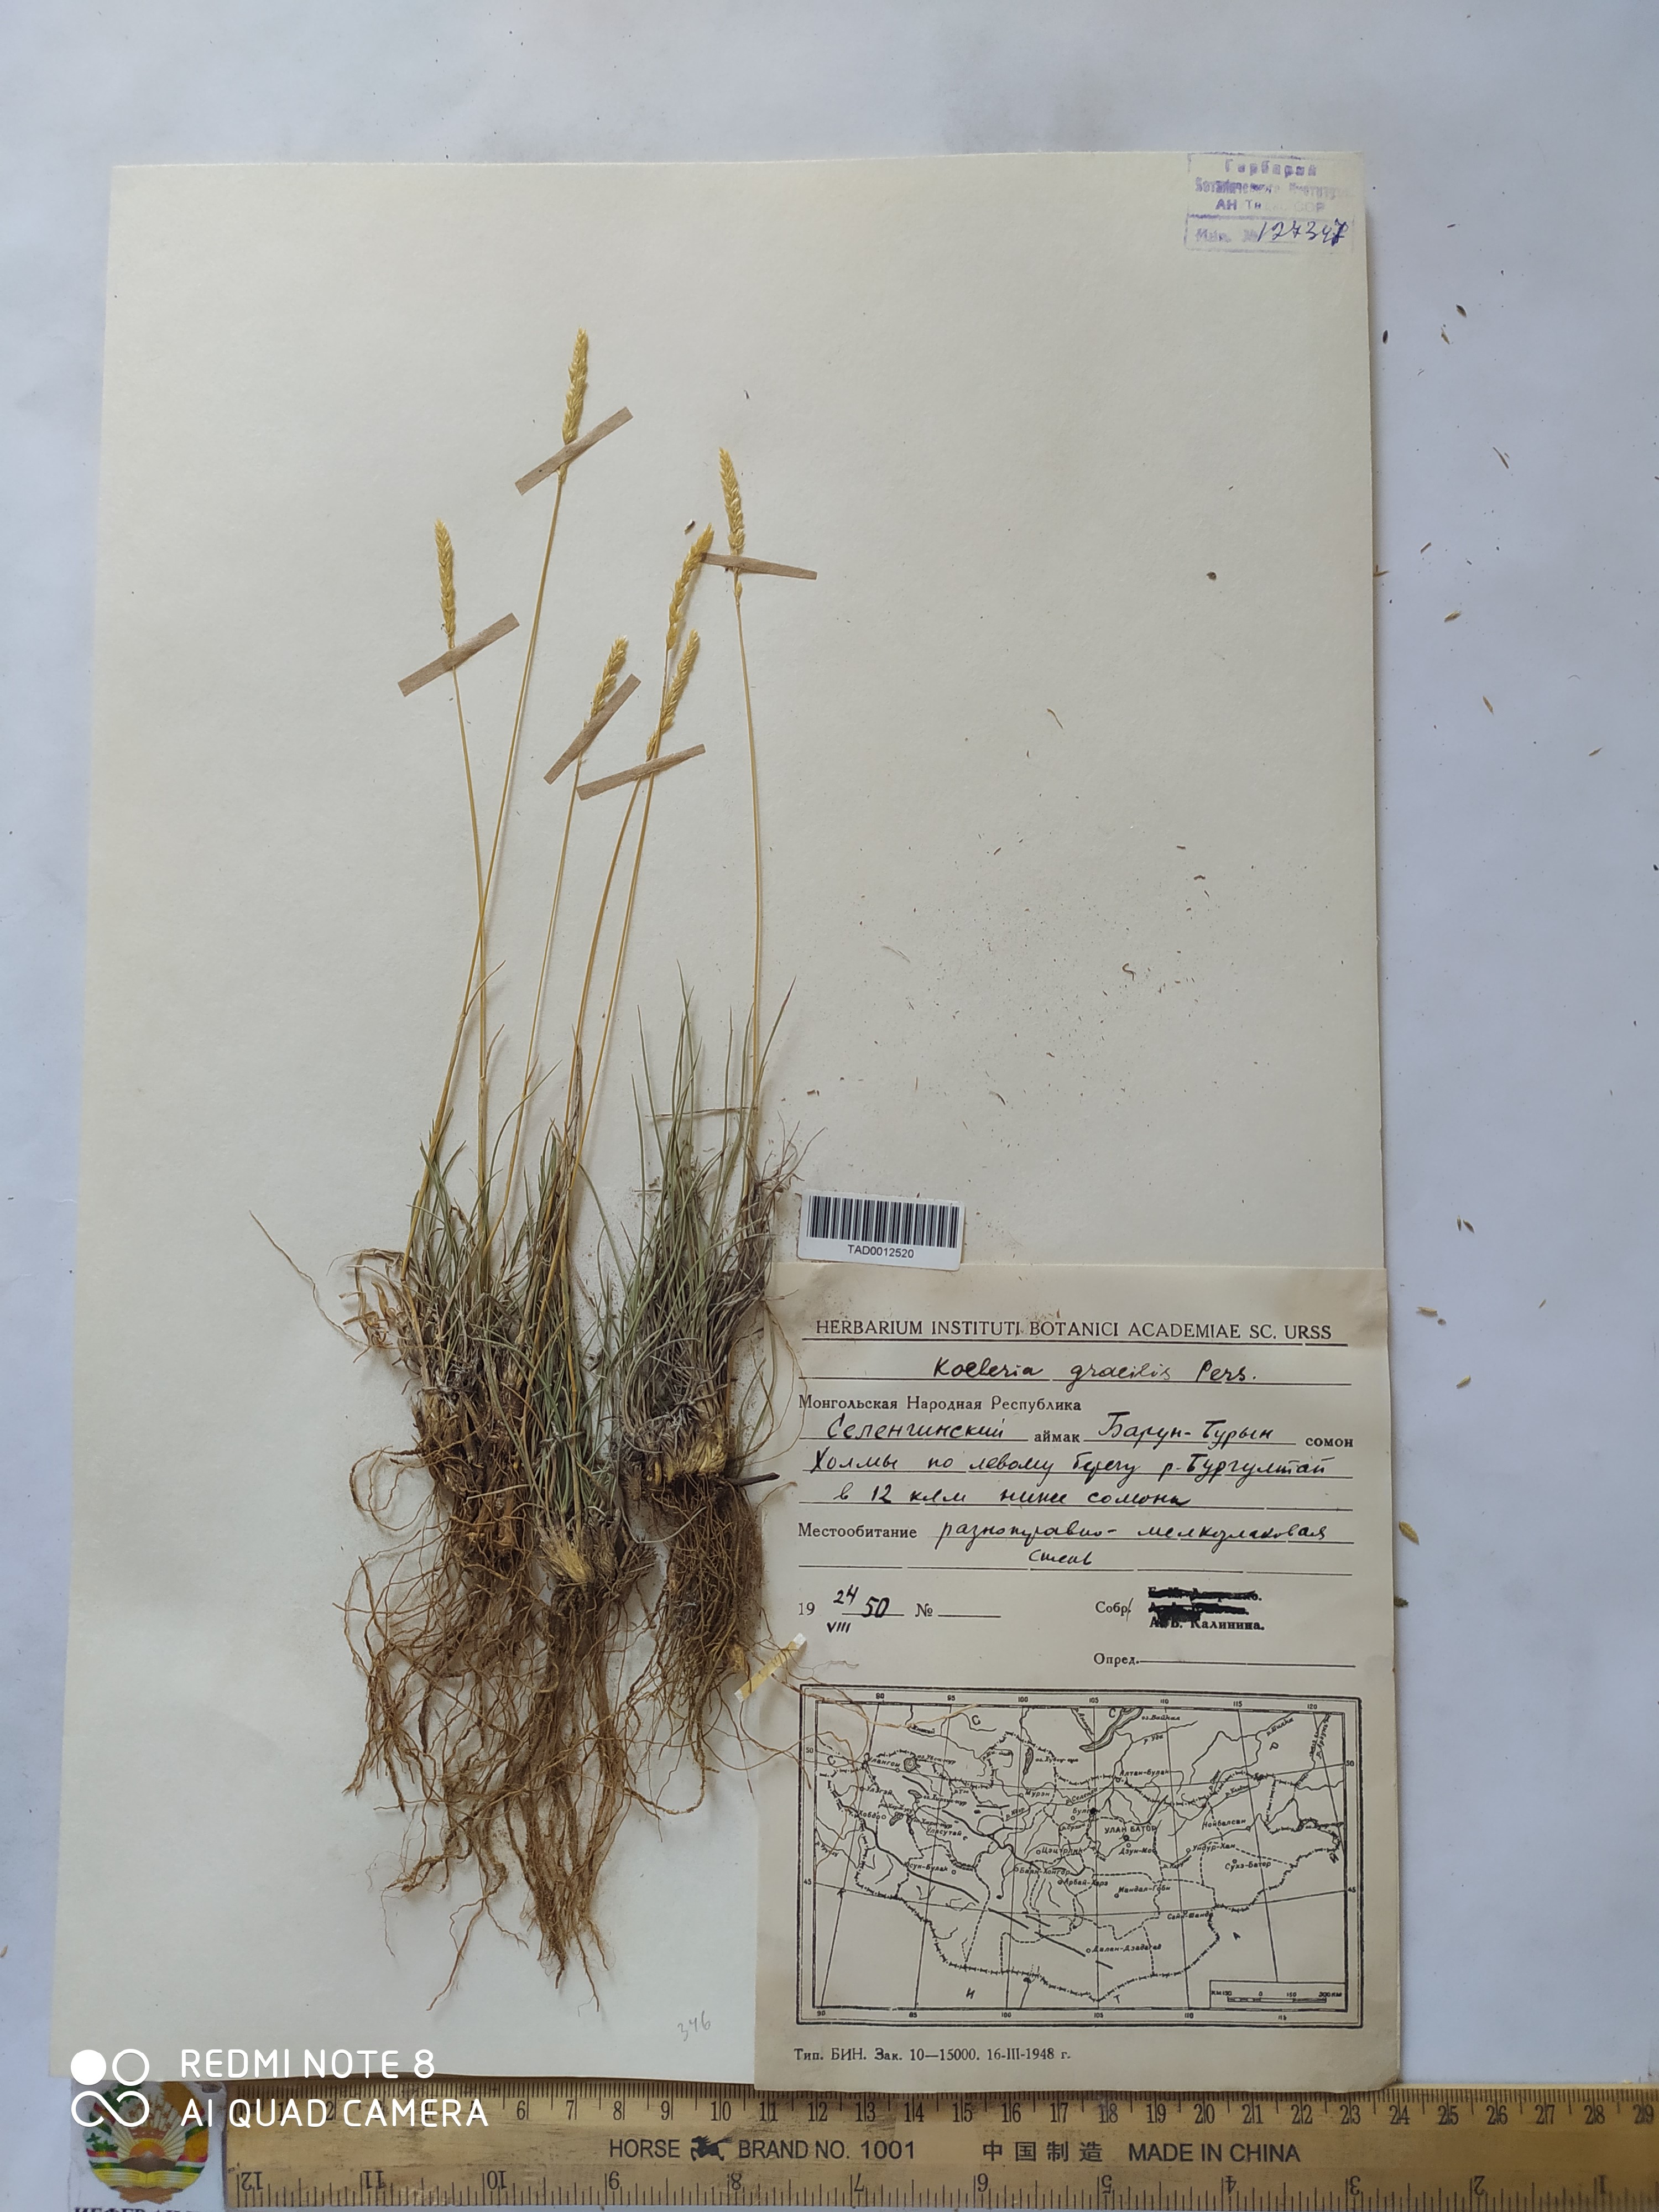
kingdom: Plantae
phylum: Tracheophyta
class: Liliopsida
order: Poales
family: Poaceae
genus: Koeleria
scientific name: Koeleria macrantha
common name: Crested hair-grass
